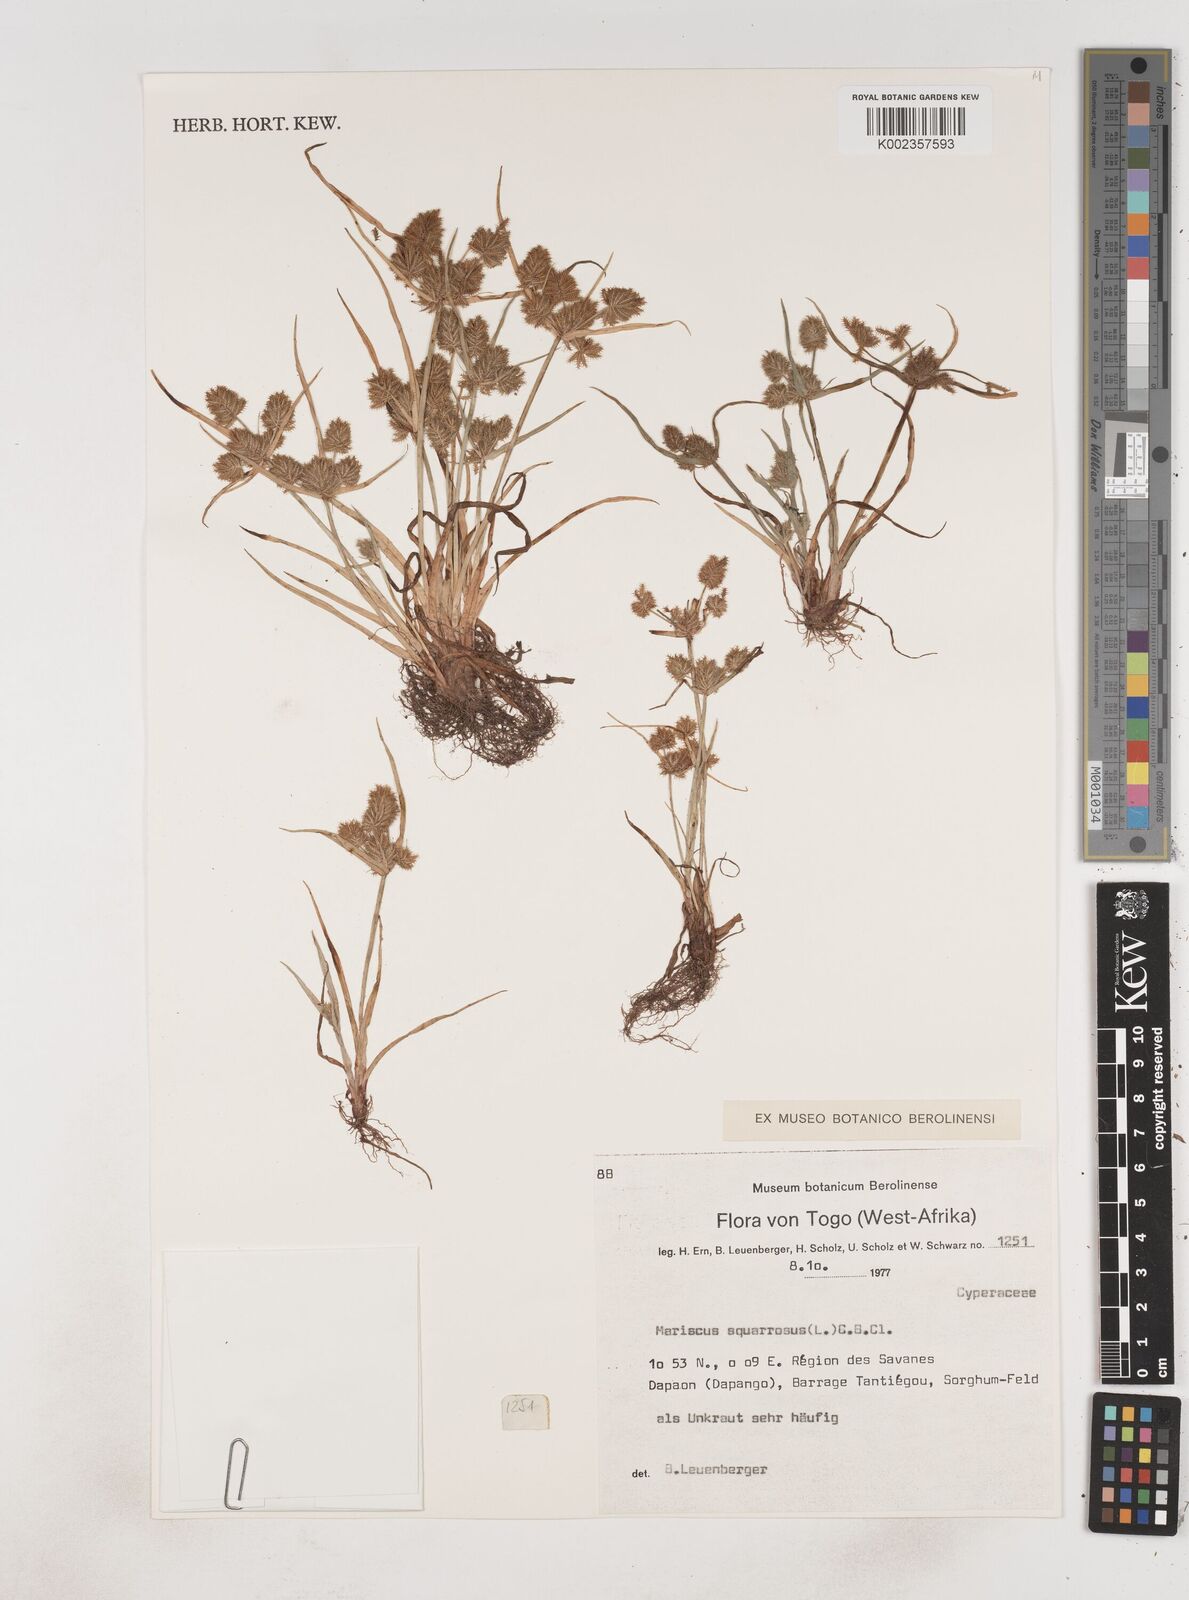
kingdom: Plantae
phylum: Tracheophyta
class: Liliopsida
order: Poales
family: Cyperaceae
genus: Cyperus
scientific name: Cyperus squarrosus
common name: Awned cyperus
